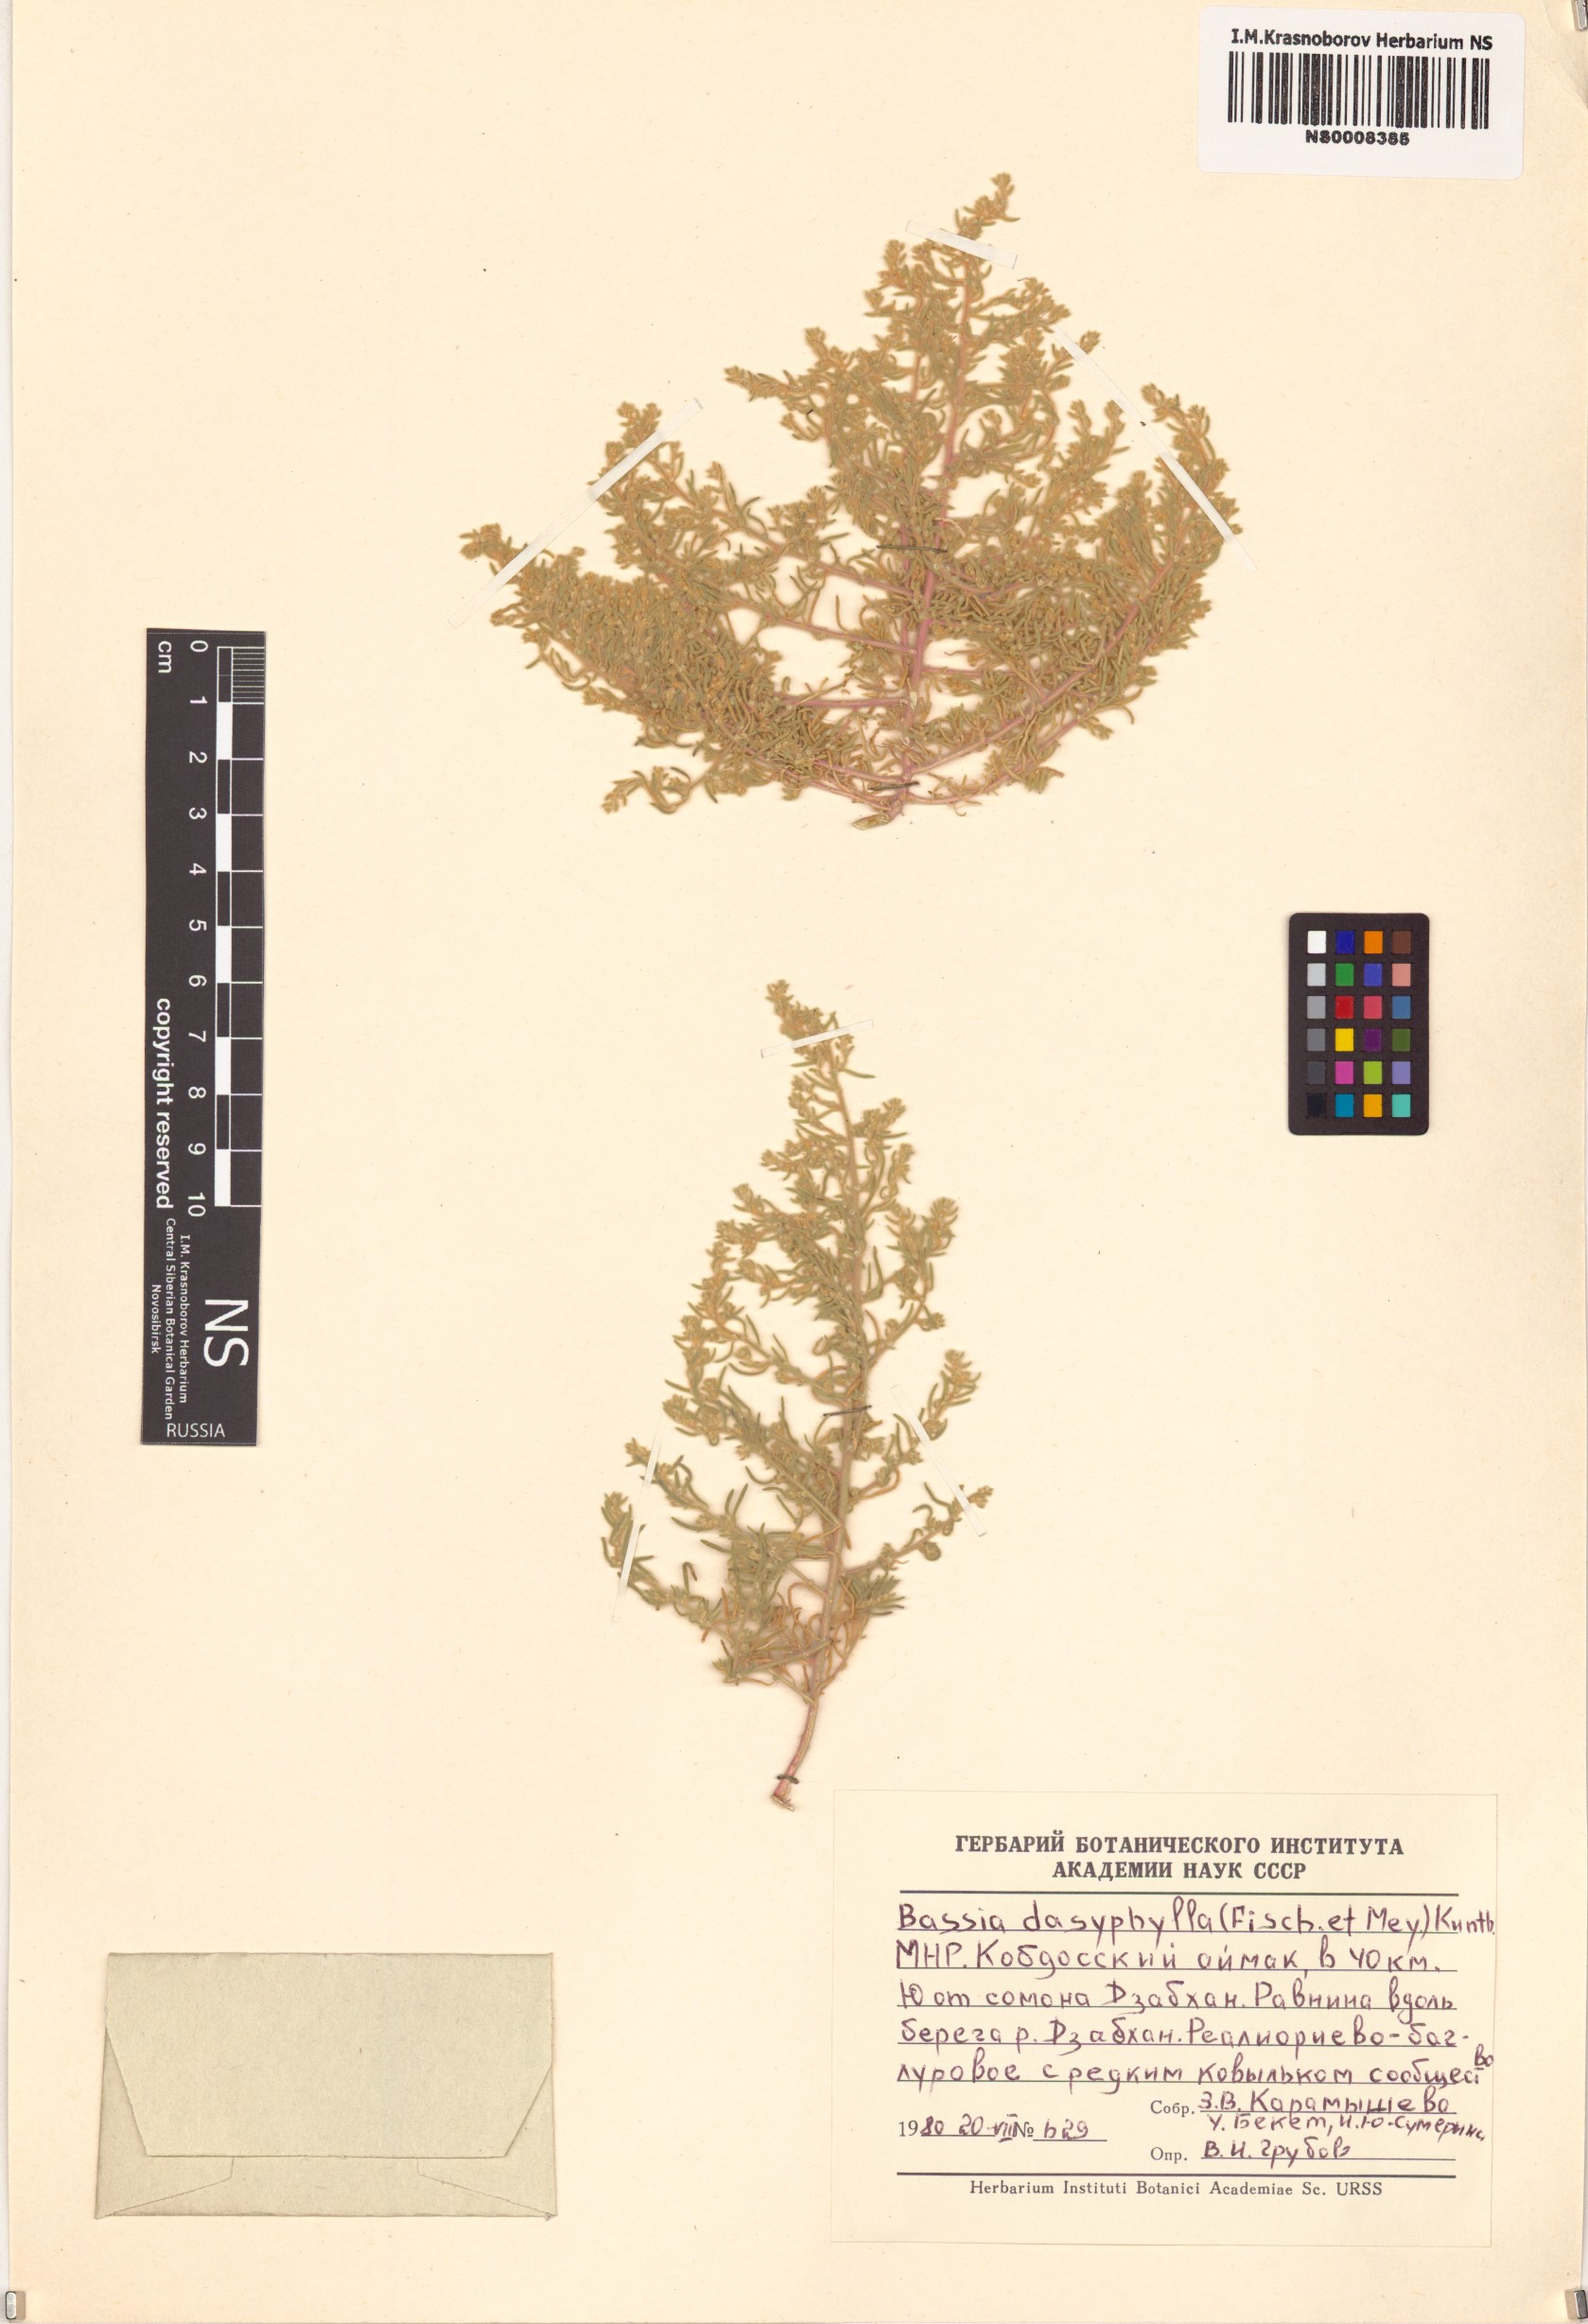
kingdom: Plantae
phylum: Tracheophyta
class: Magnoliopsida
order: Caryophyllales
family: Amaranthaceae
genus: Grubovia
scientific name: Grubovia dasyphylla
